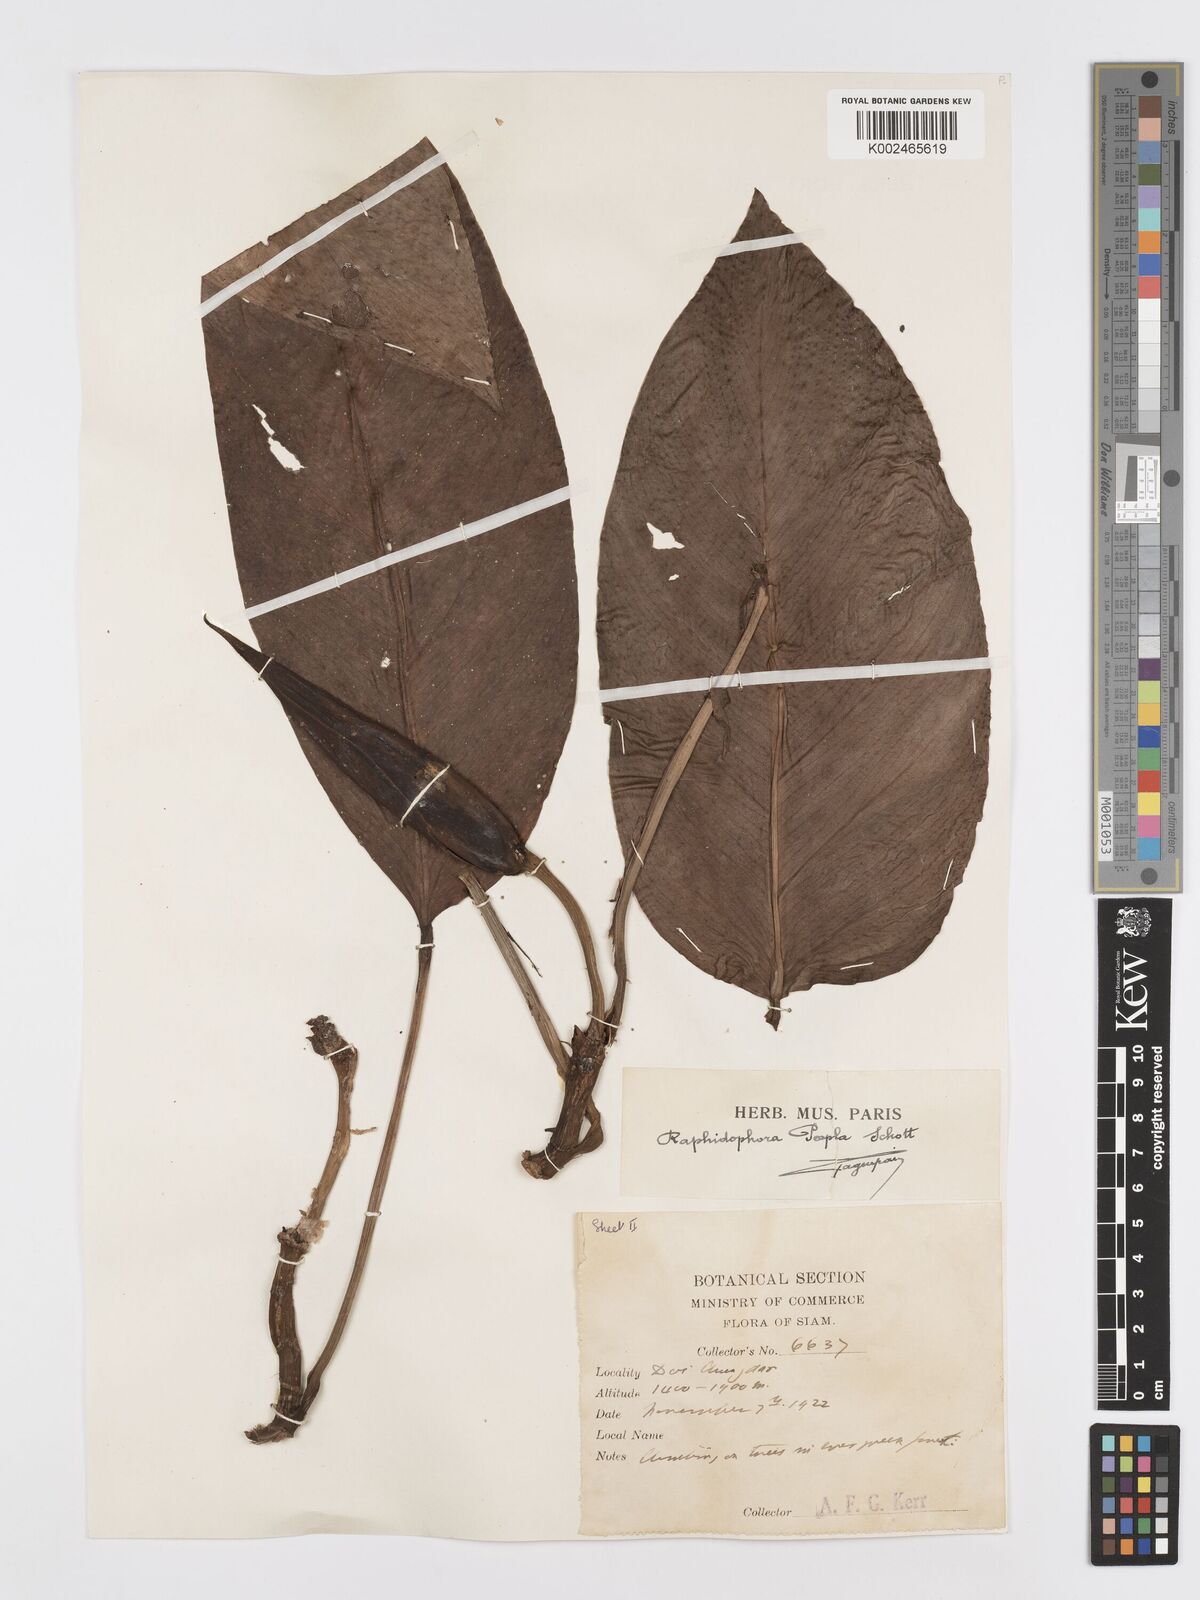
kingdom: Plantae
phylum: Tracheophyta
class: Liliopsida
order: Alismatales
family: Araceae
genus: Rhaphidophora
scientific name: Rhaphidophora peepla
